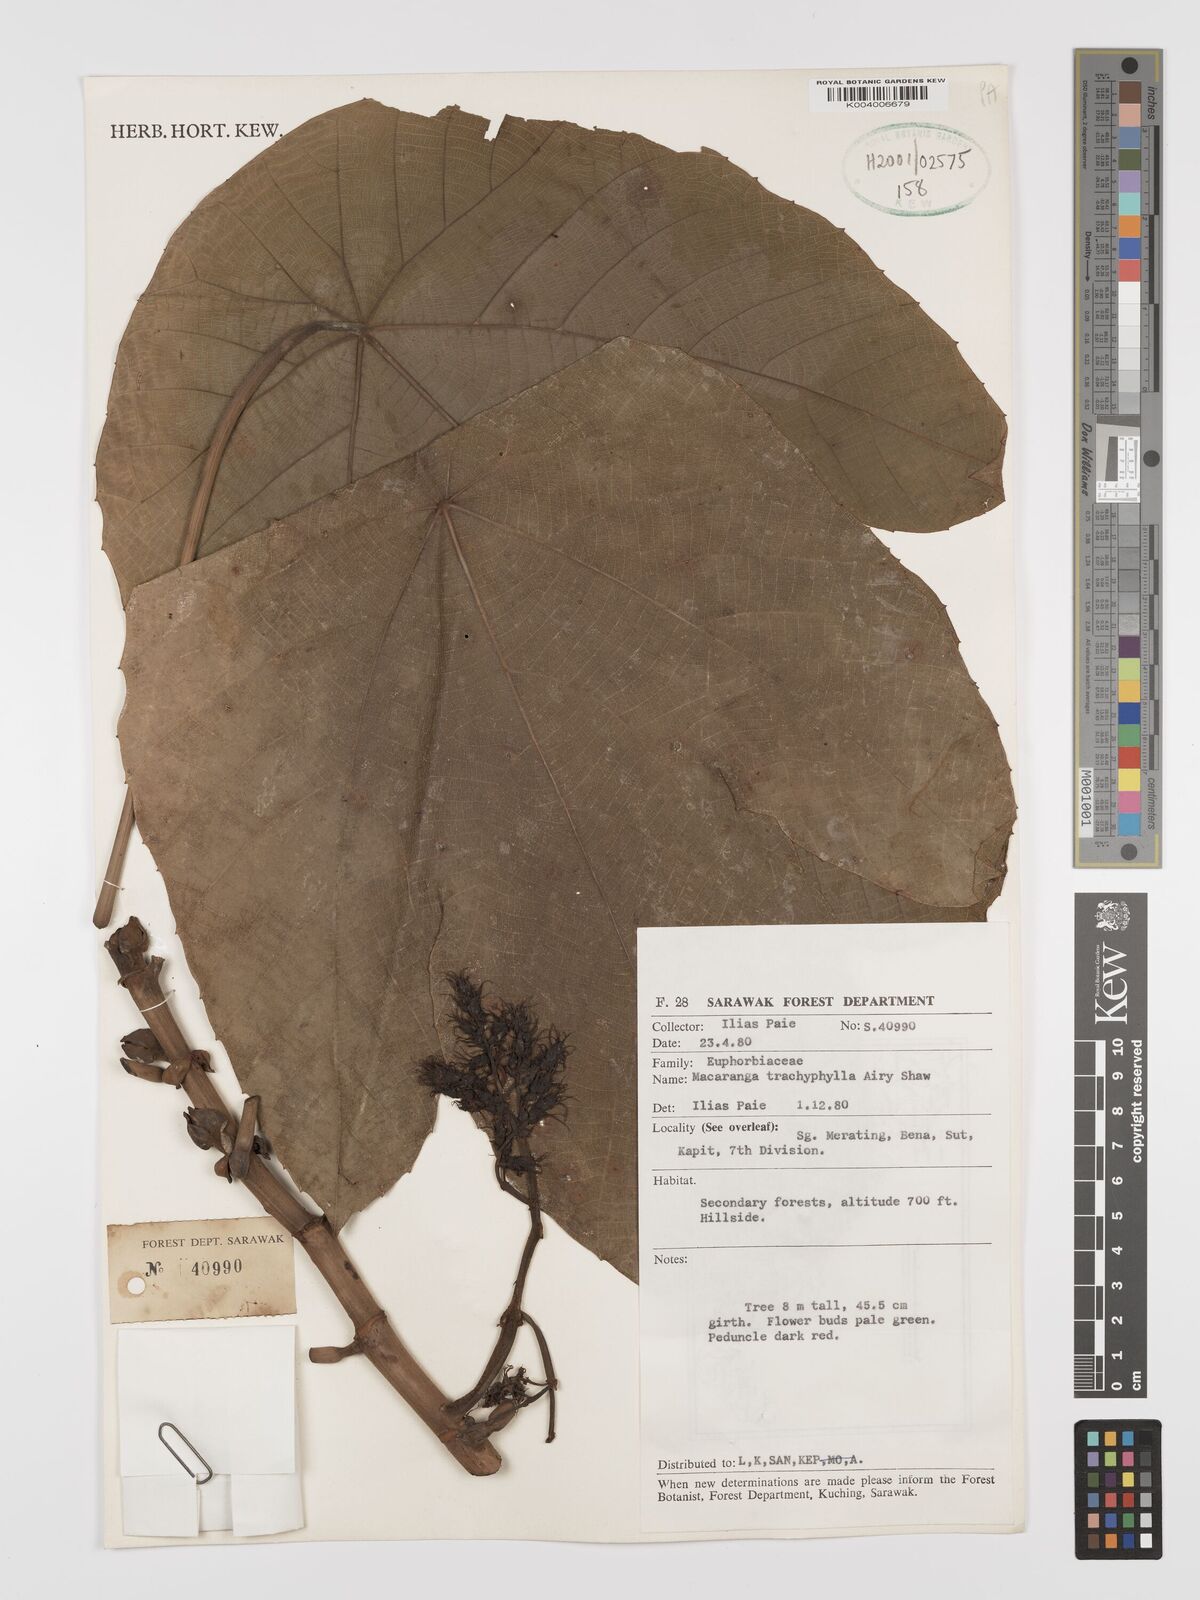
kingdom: Plantae
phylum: Tracheophyta
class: Magnoliopsida
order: Malpighiales
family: Euphorbiaceae
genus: Macaranga
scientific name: Macaranga trachyphylla
